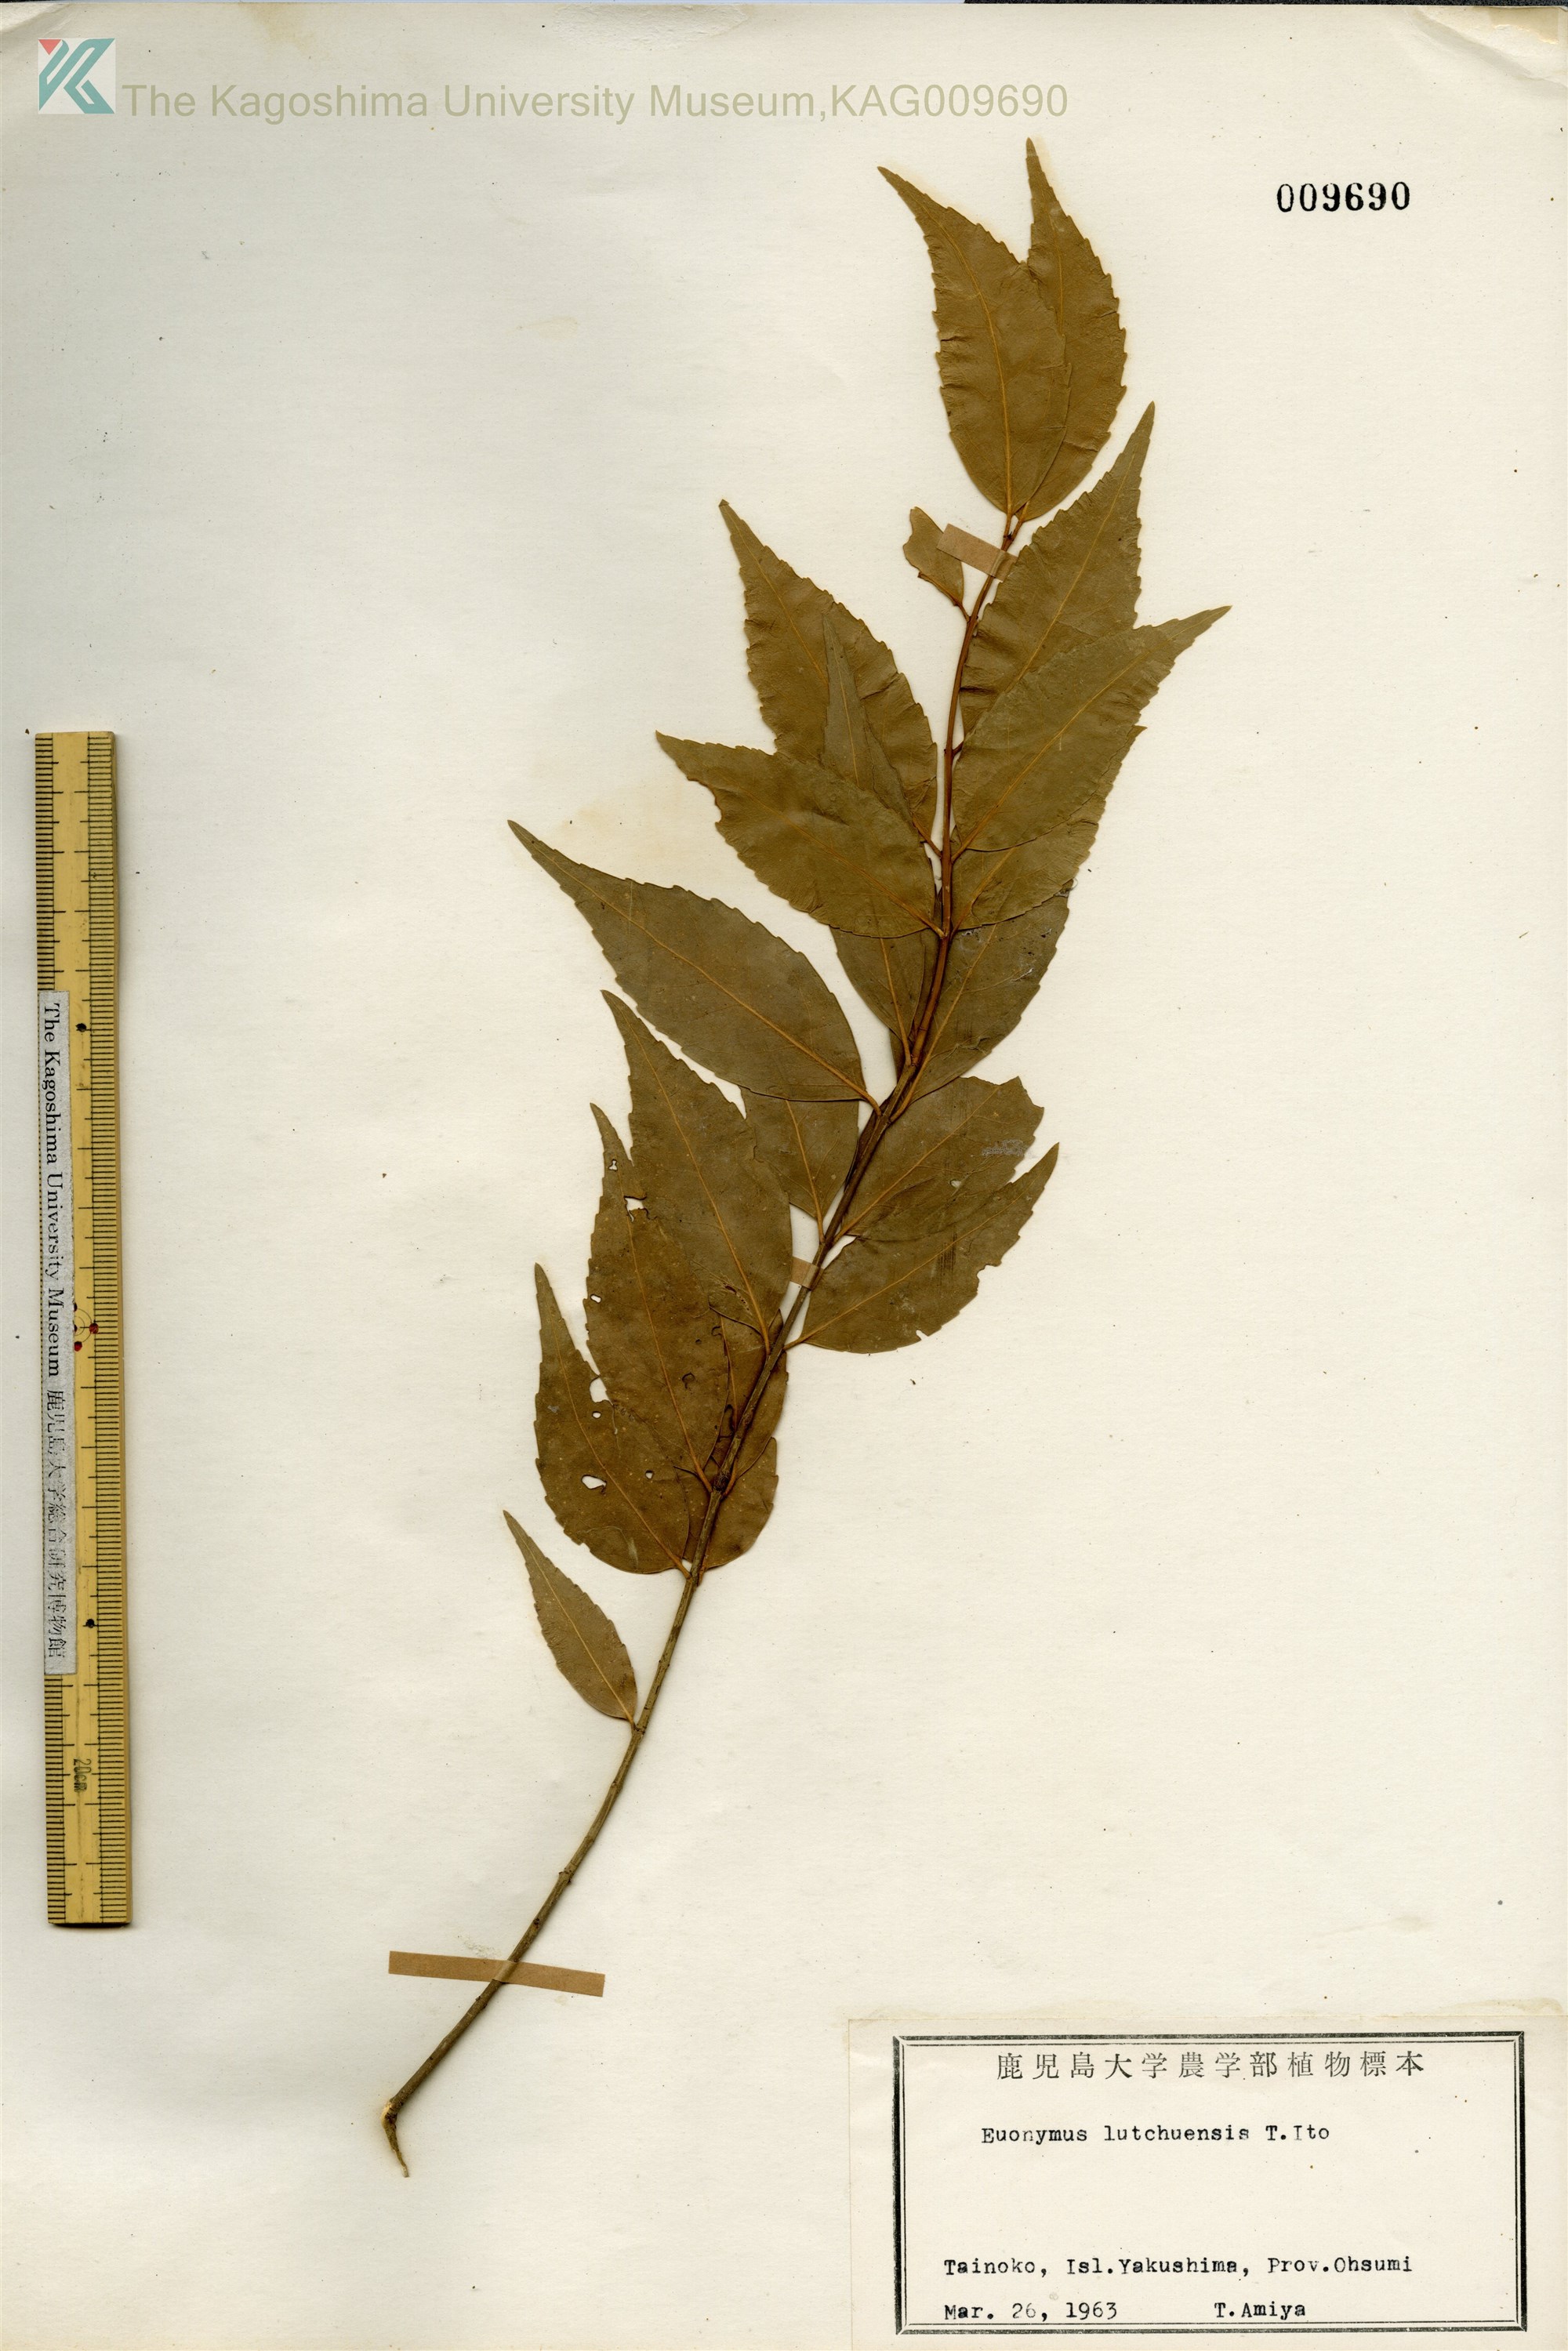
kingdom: Plantae
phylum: Tracheophyta
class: Magnoliopsida
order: Celastrales
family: Celastraceae
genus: Euonymus
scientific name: Euonymus lutchuensis
